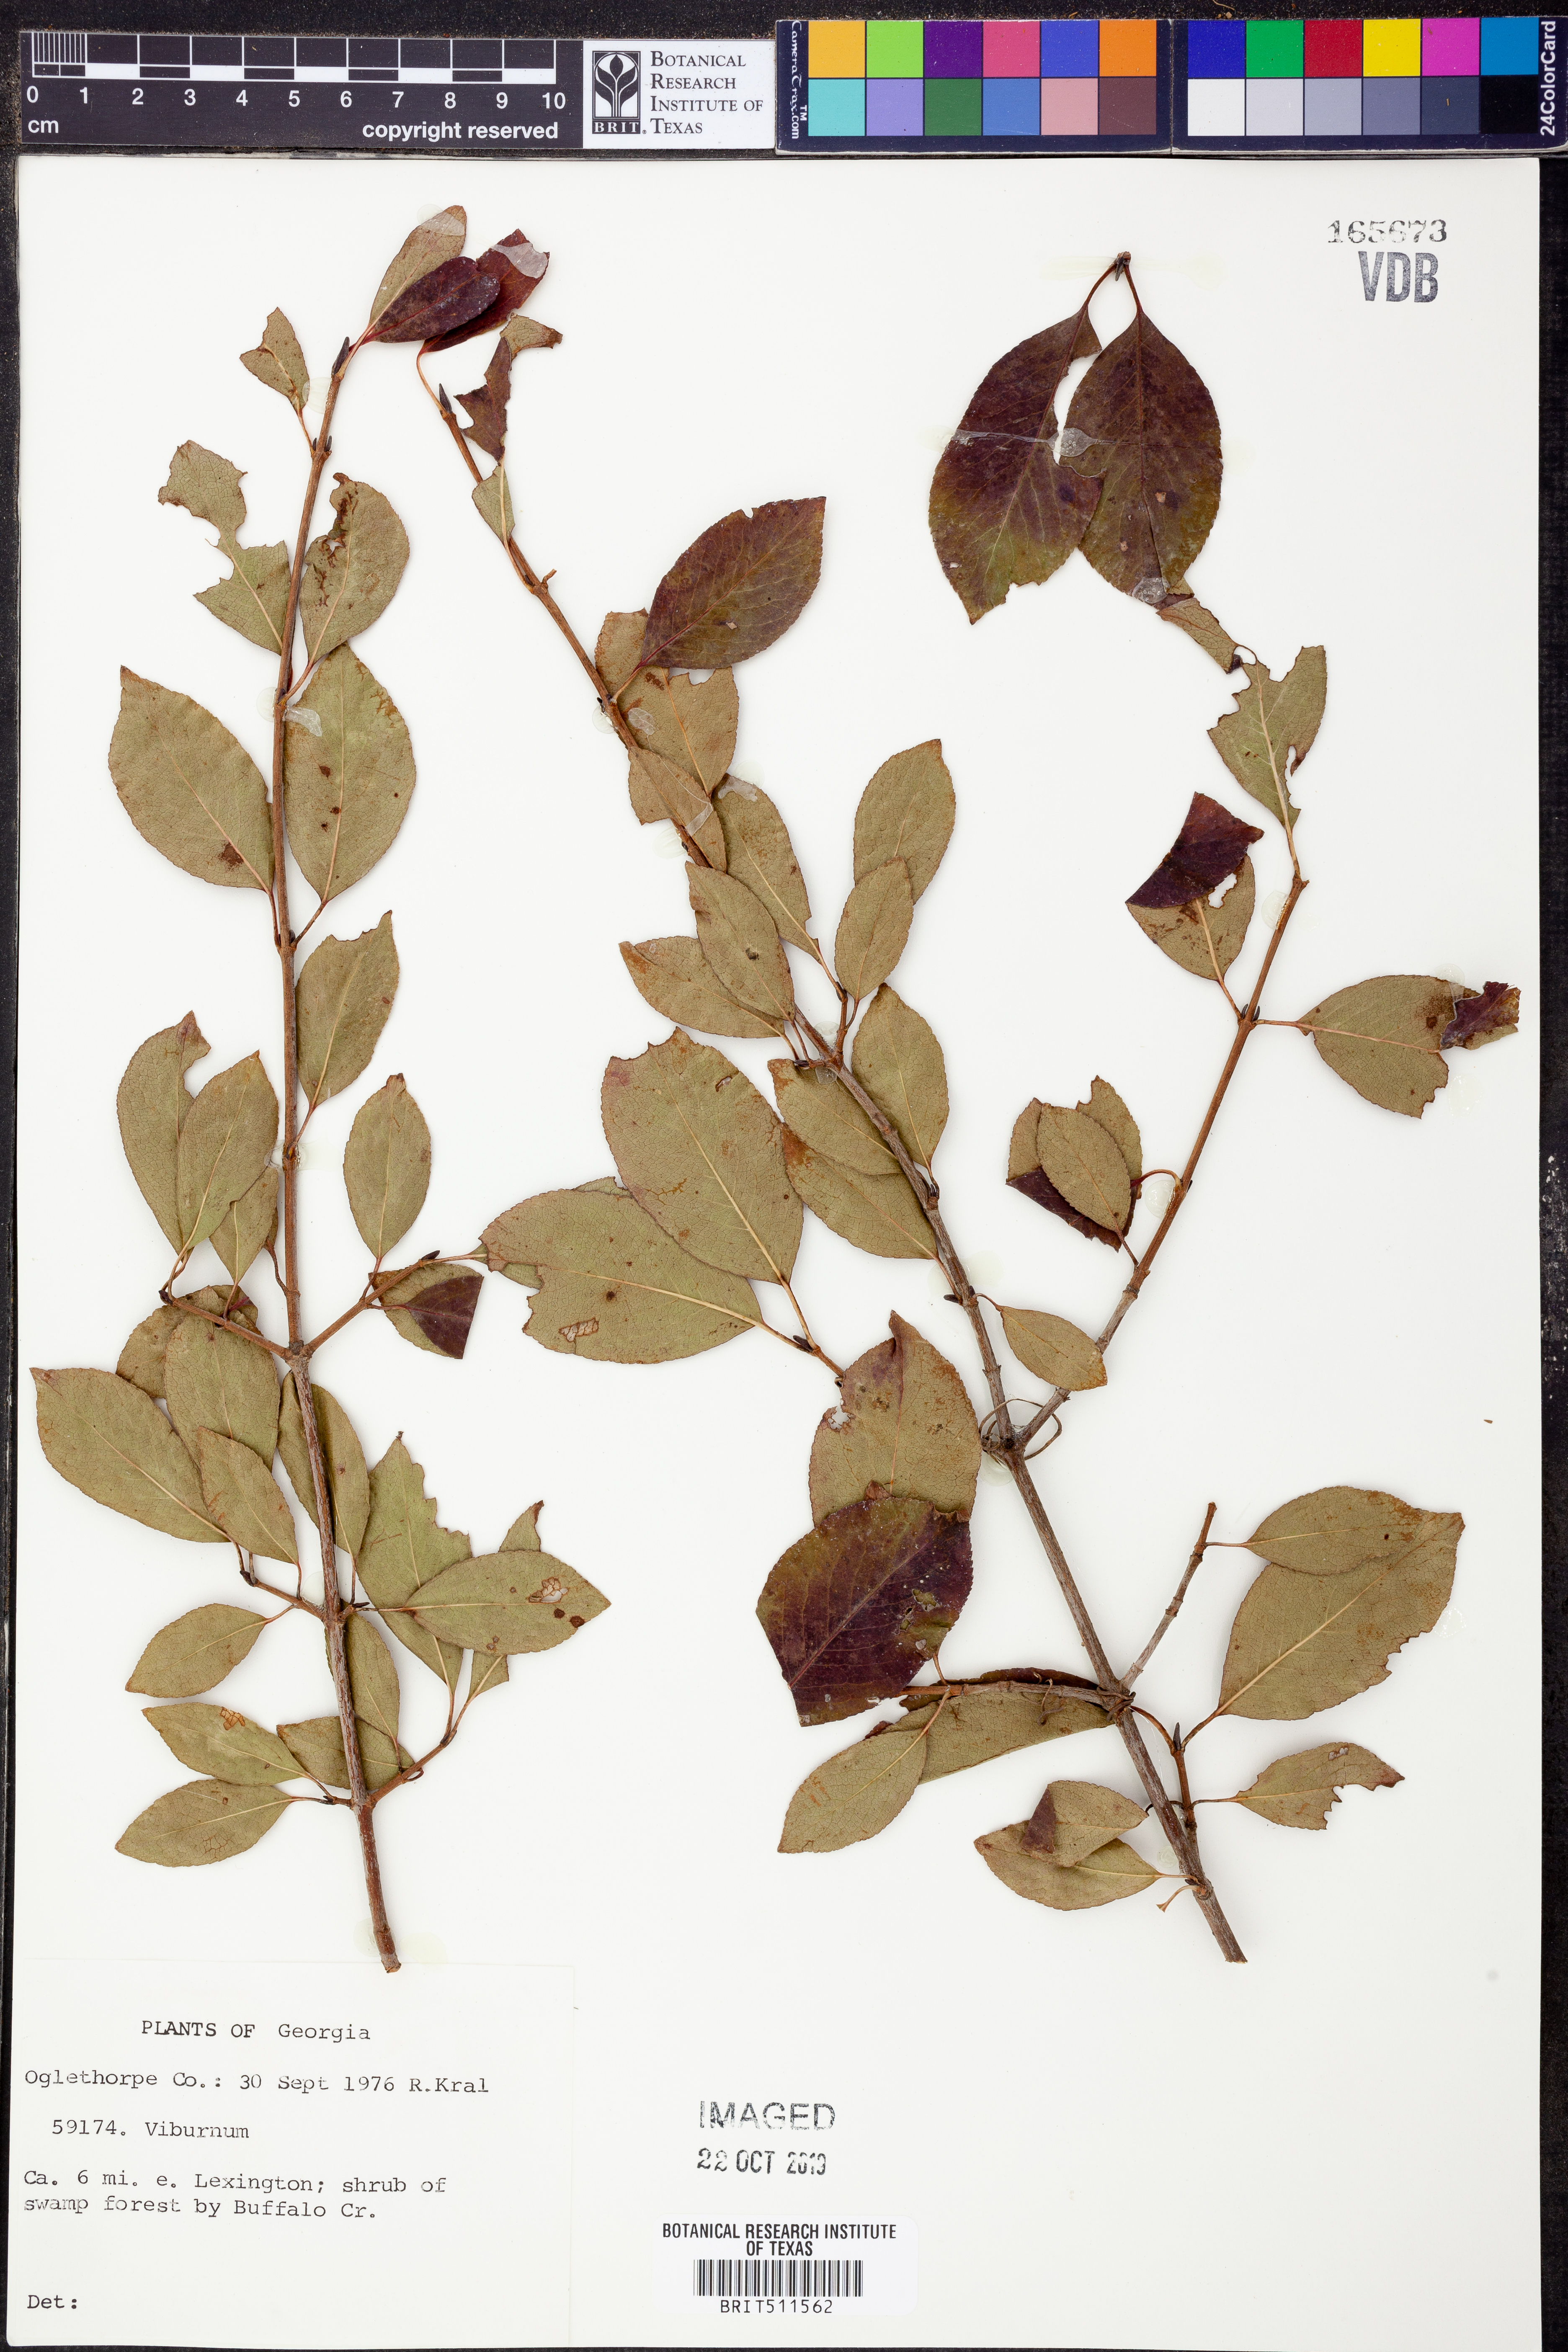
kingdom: Plantae
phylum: Tracheophyta
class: Magnoliopsida
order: Dipsacales
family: Viburnaceae
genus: Viburnum
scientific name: Viburnum
